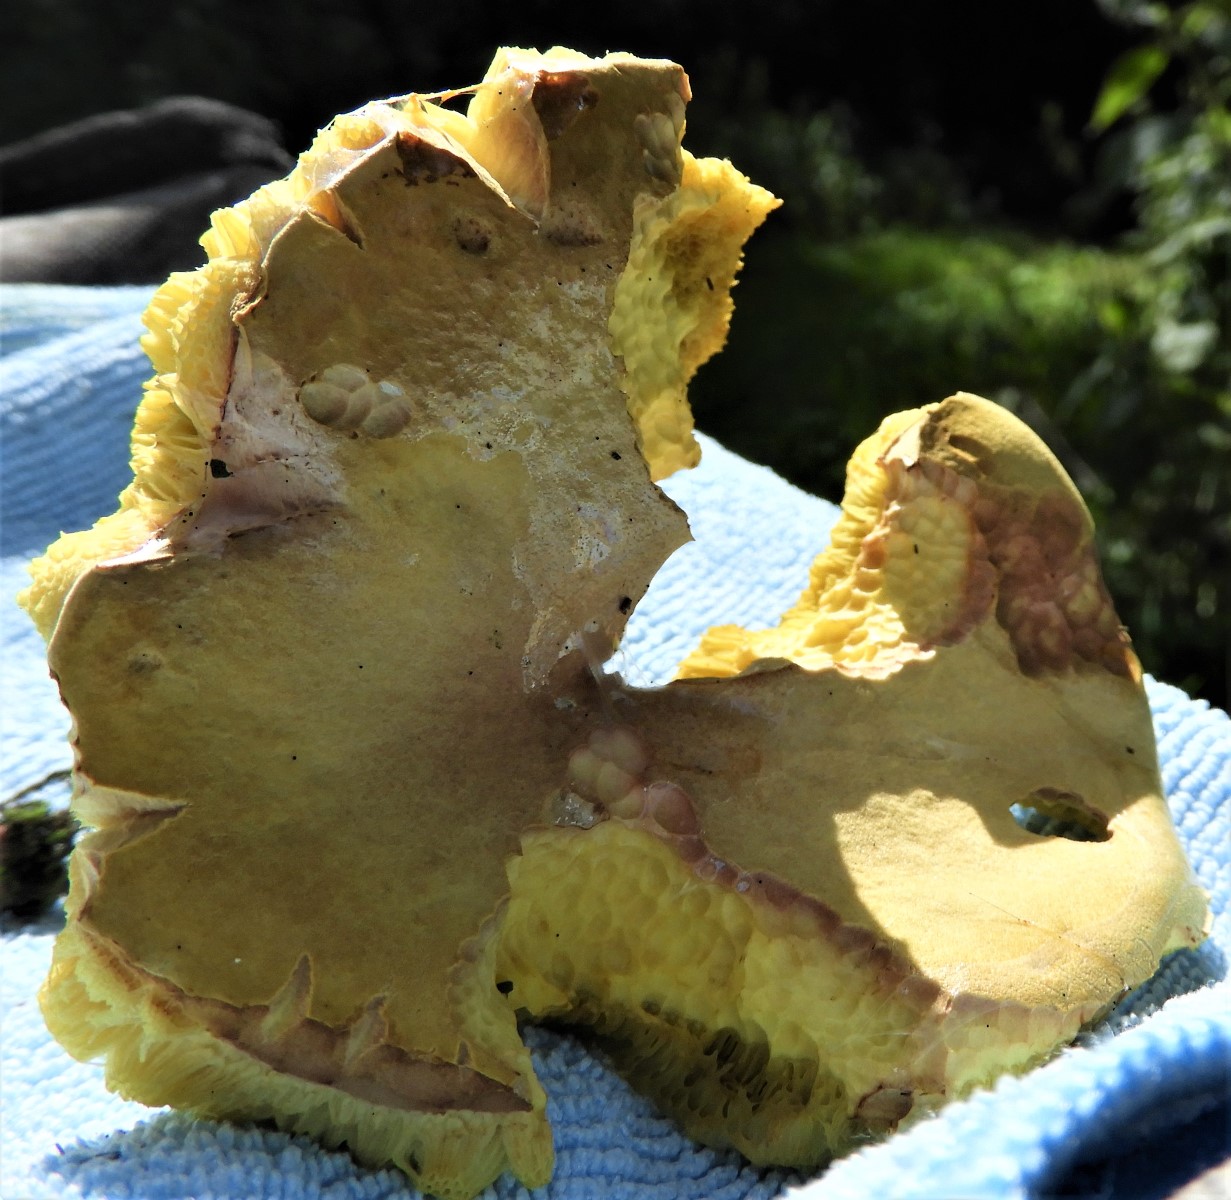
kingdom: Fungi
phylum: Basidiomycota
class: Agaricomycetes
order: Boletales
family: Boletaceae
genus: Xerocomus
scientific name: Xerocomus
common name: filtrørhat
